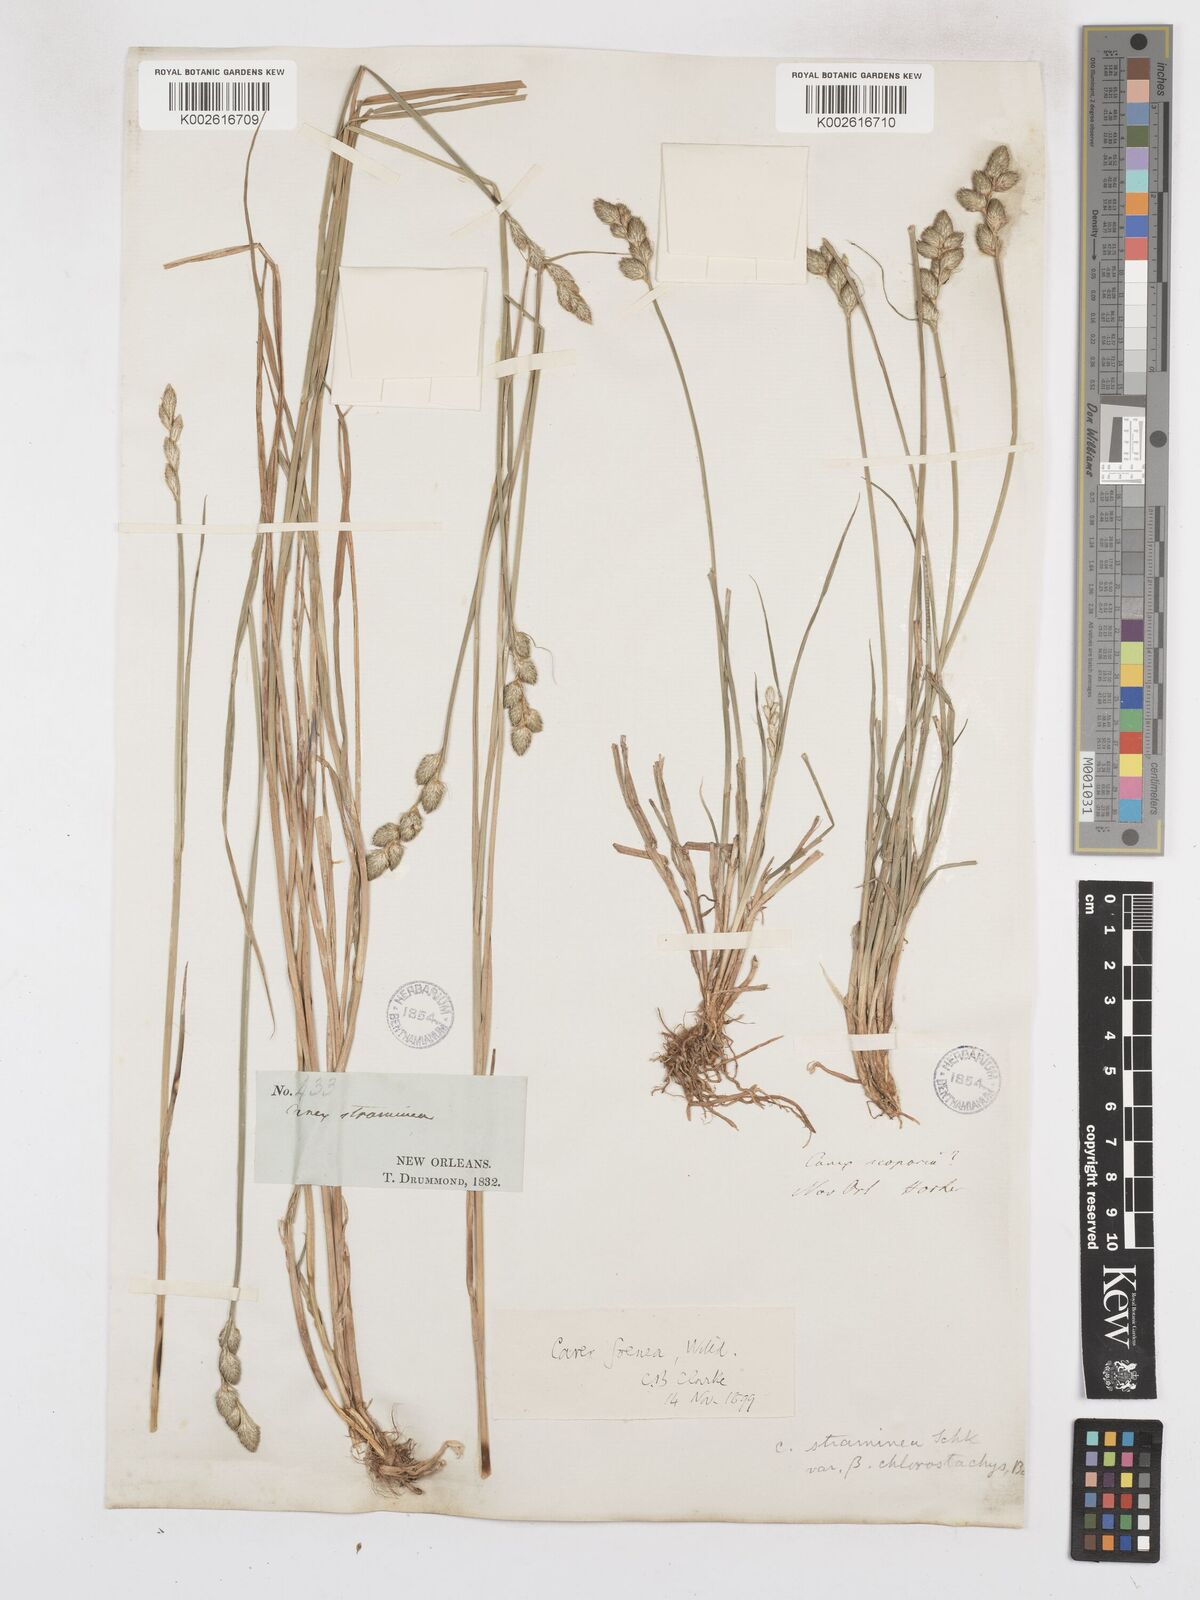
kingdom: Plantae
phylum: Tracheophyta
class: Liliopsida
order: Poales
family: Cyperaceae
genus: Carex
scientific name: Carex argyrantha
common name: Silvery-flowered sedge
